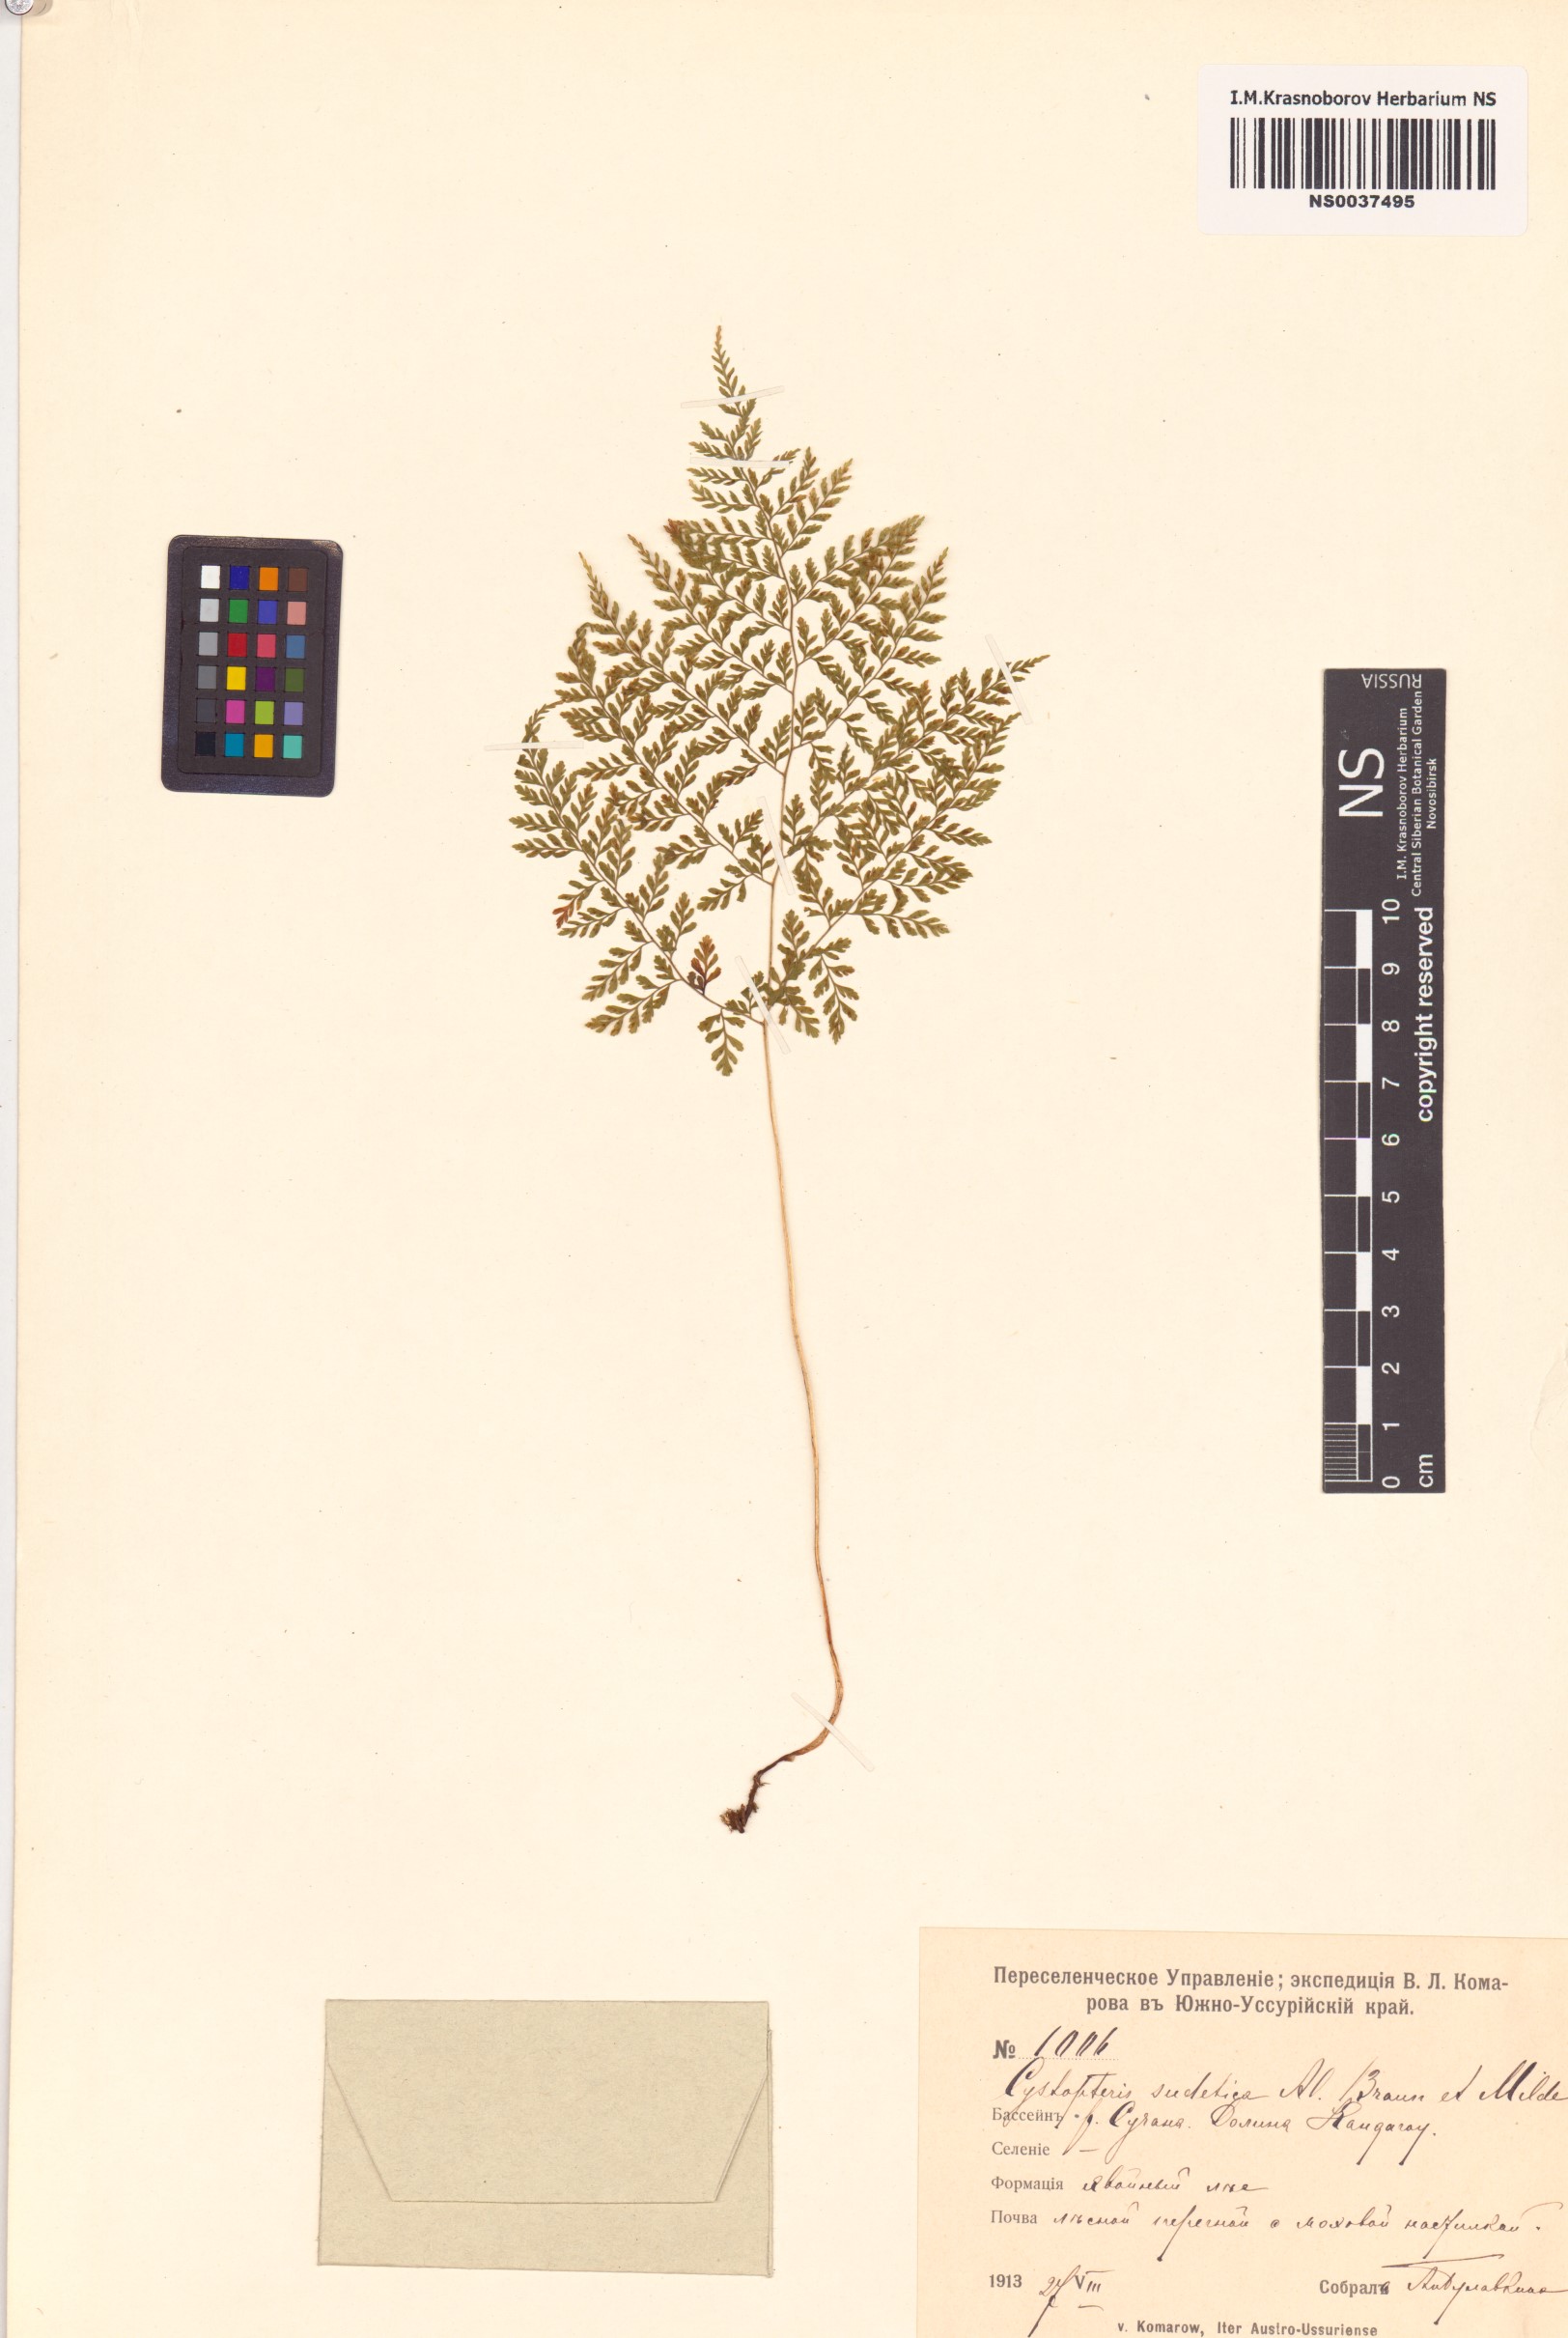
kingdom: Plantae
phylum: Tracheophyta
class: Polypodiopsida
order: Polypodiales
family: Cystopteridaceae
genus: Cystopteris
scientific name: Cystopteris sudetica
